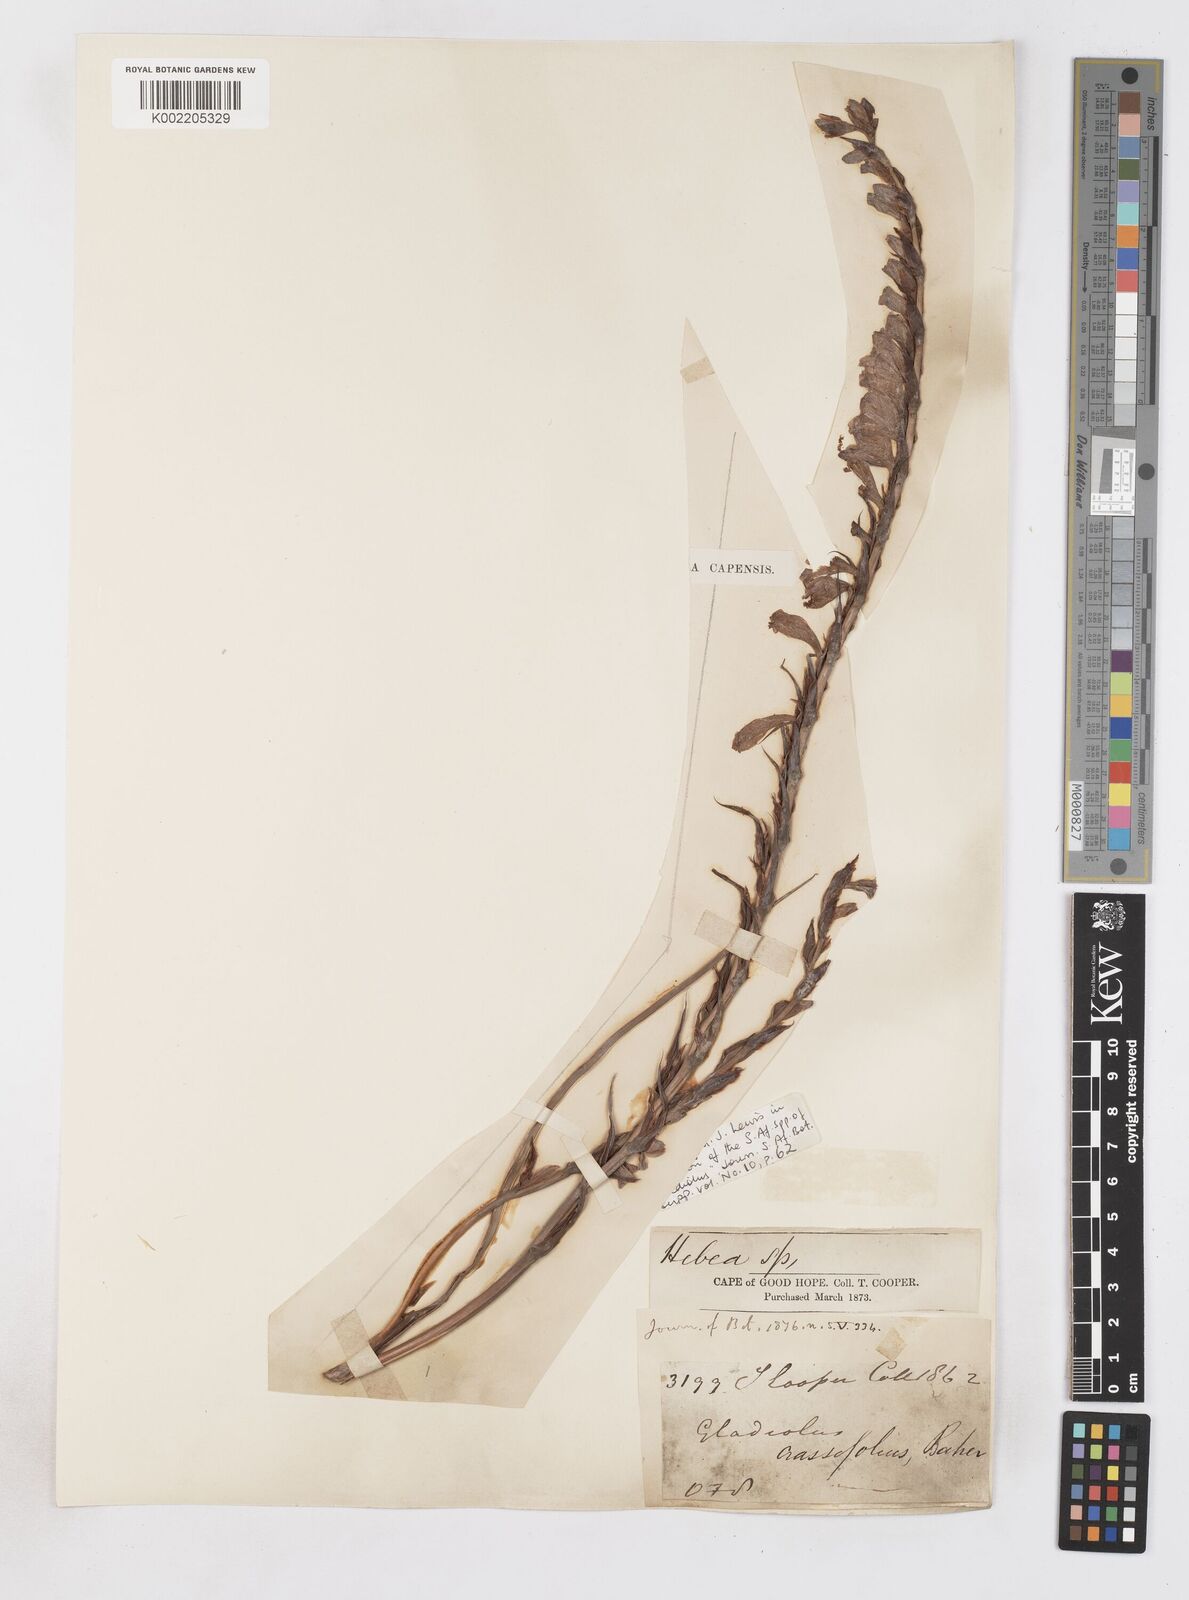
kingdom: Plantae
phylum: Tracheophyta
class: Liliopsida
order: Asparagales
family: Iridaceae
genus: Gladiolus
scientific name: Gladiolus crassifolius
